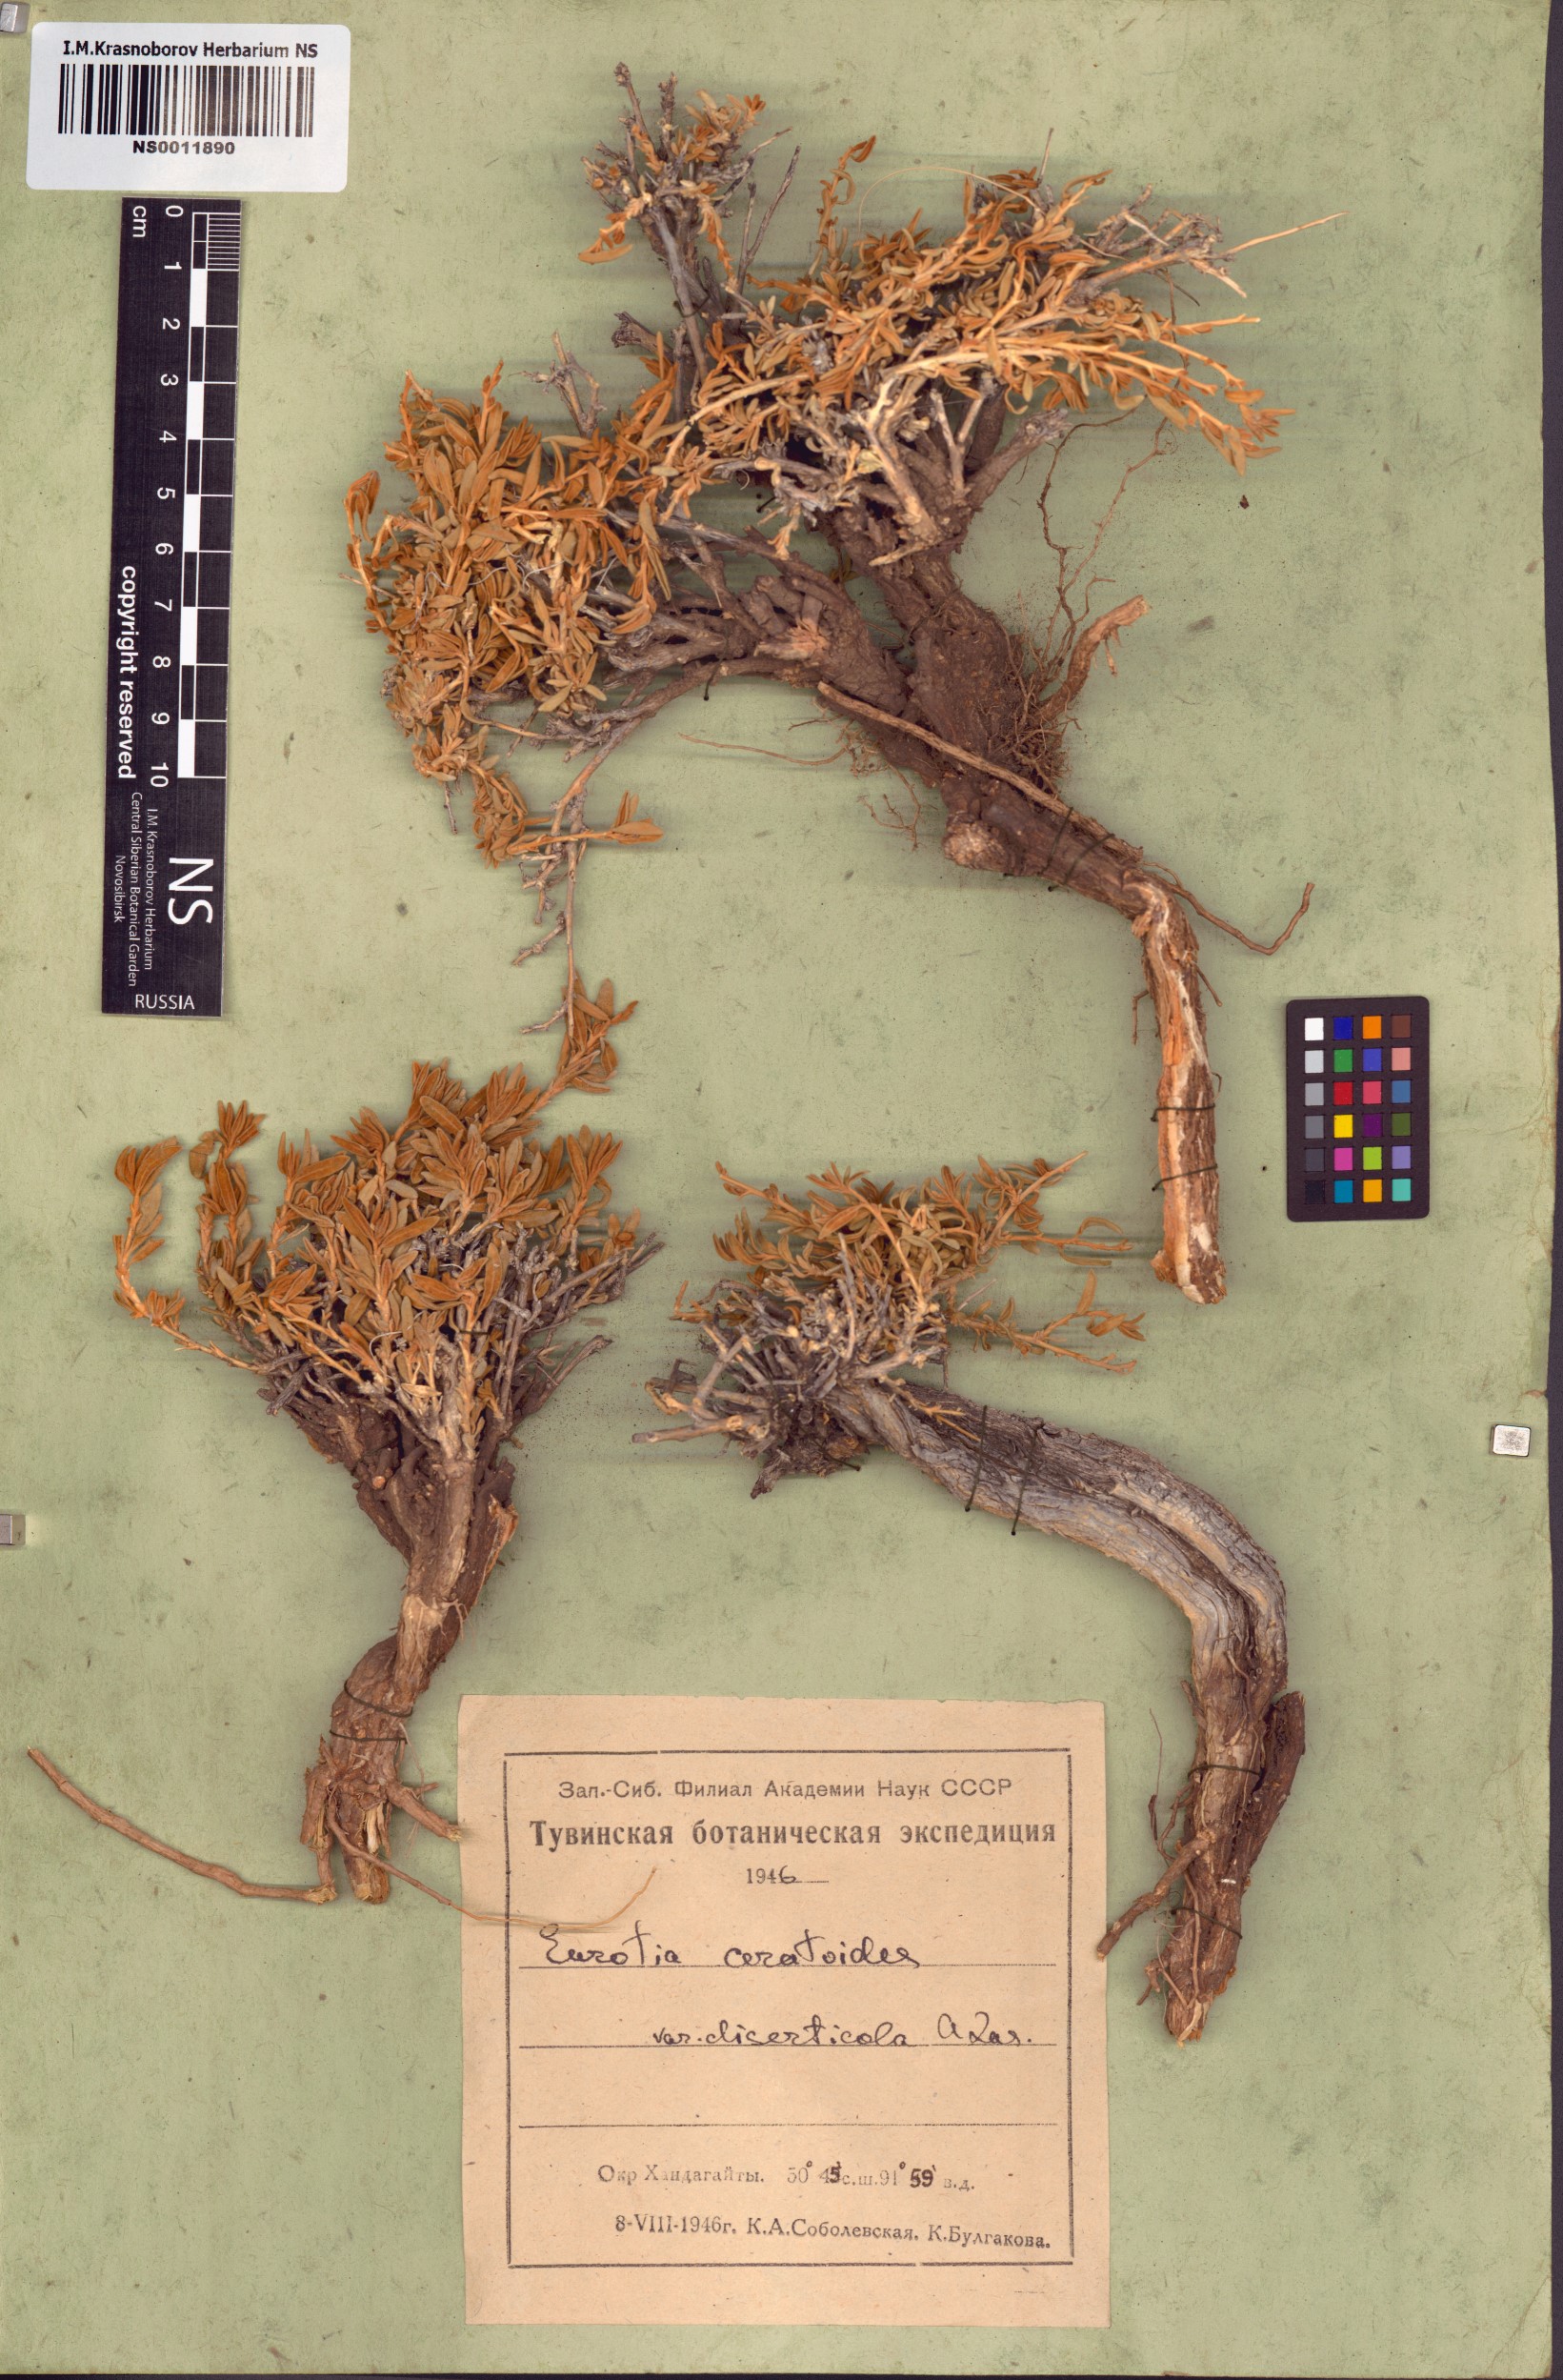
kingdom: Plantae
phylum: Tracheophyta
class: Magnoliopsida
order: Caryophyllales
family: Amaranthaceae
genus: Krascheninnikovia
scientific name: Krascheninnikovia ceratoides
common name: Pamirian winterfat
